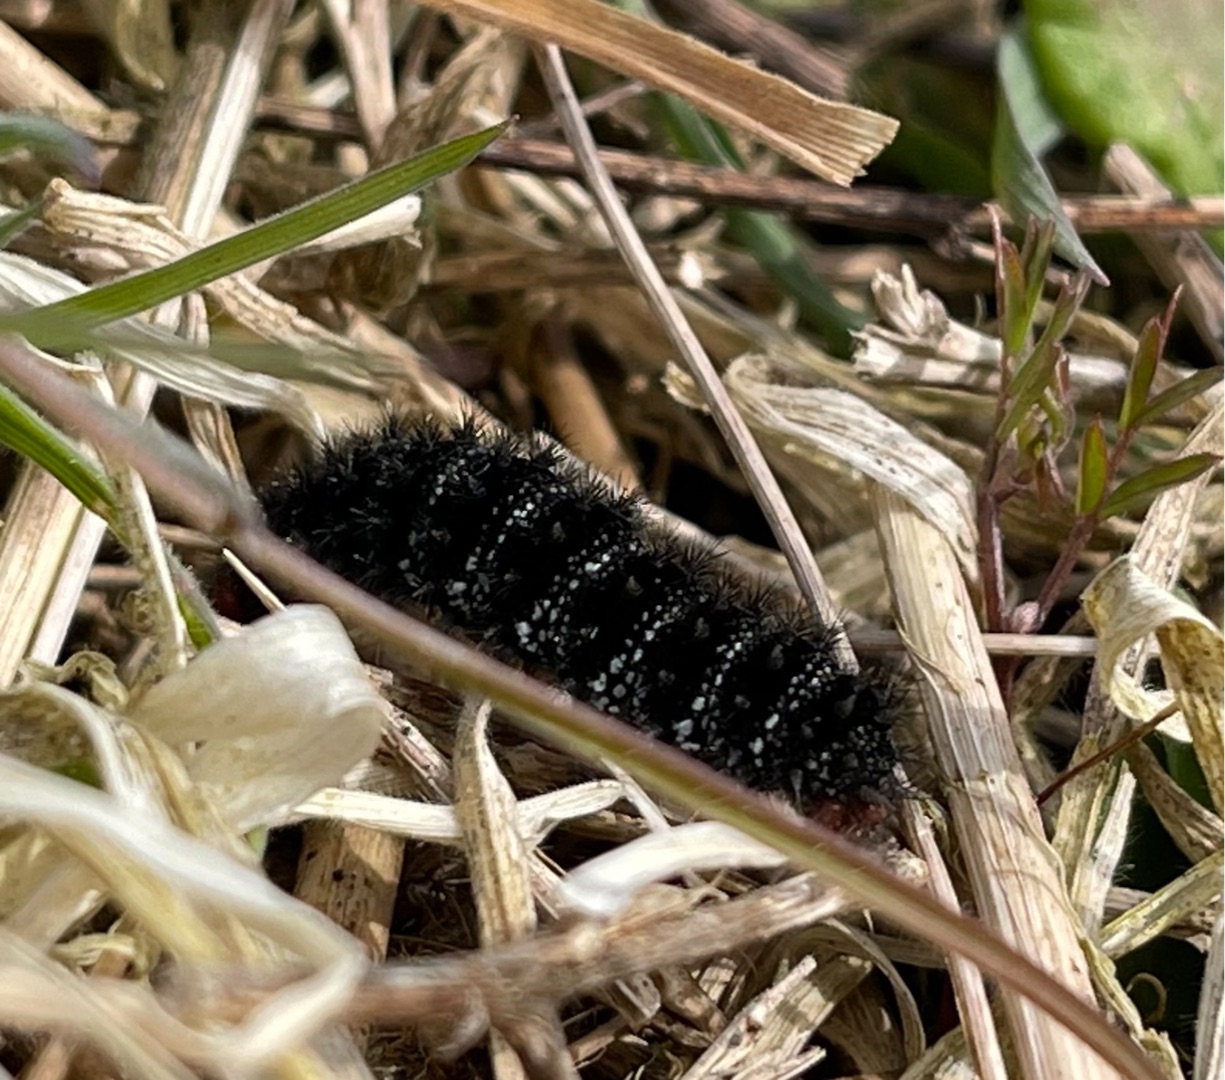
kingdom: Animalia
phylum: Arthropoda
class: Insecta
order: Lepidoptera
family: Nymphalidae
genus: Melitaea
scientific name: Melitaea cinxia
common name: Okkergul pletvinge
